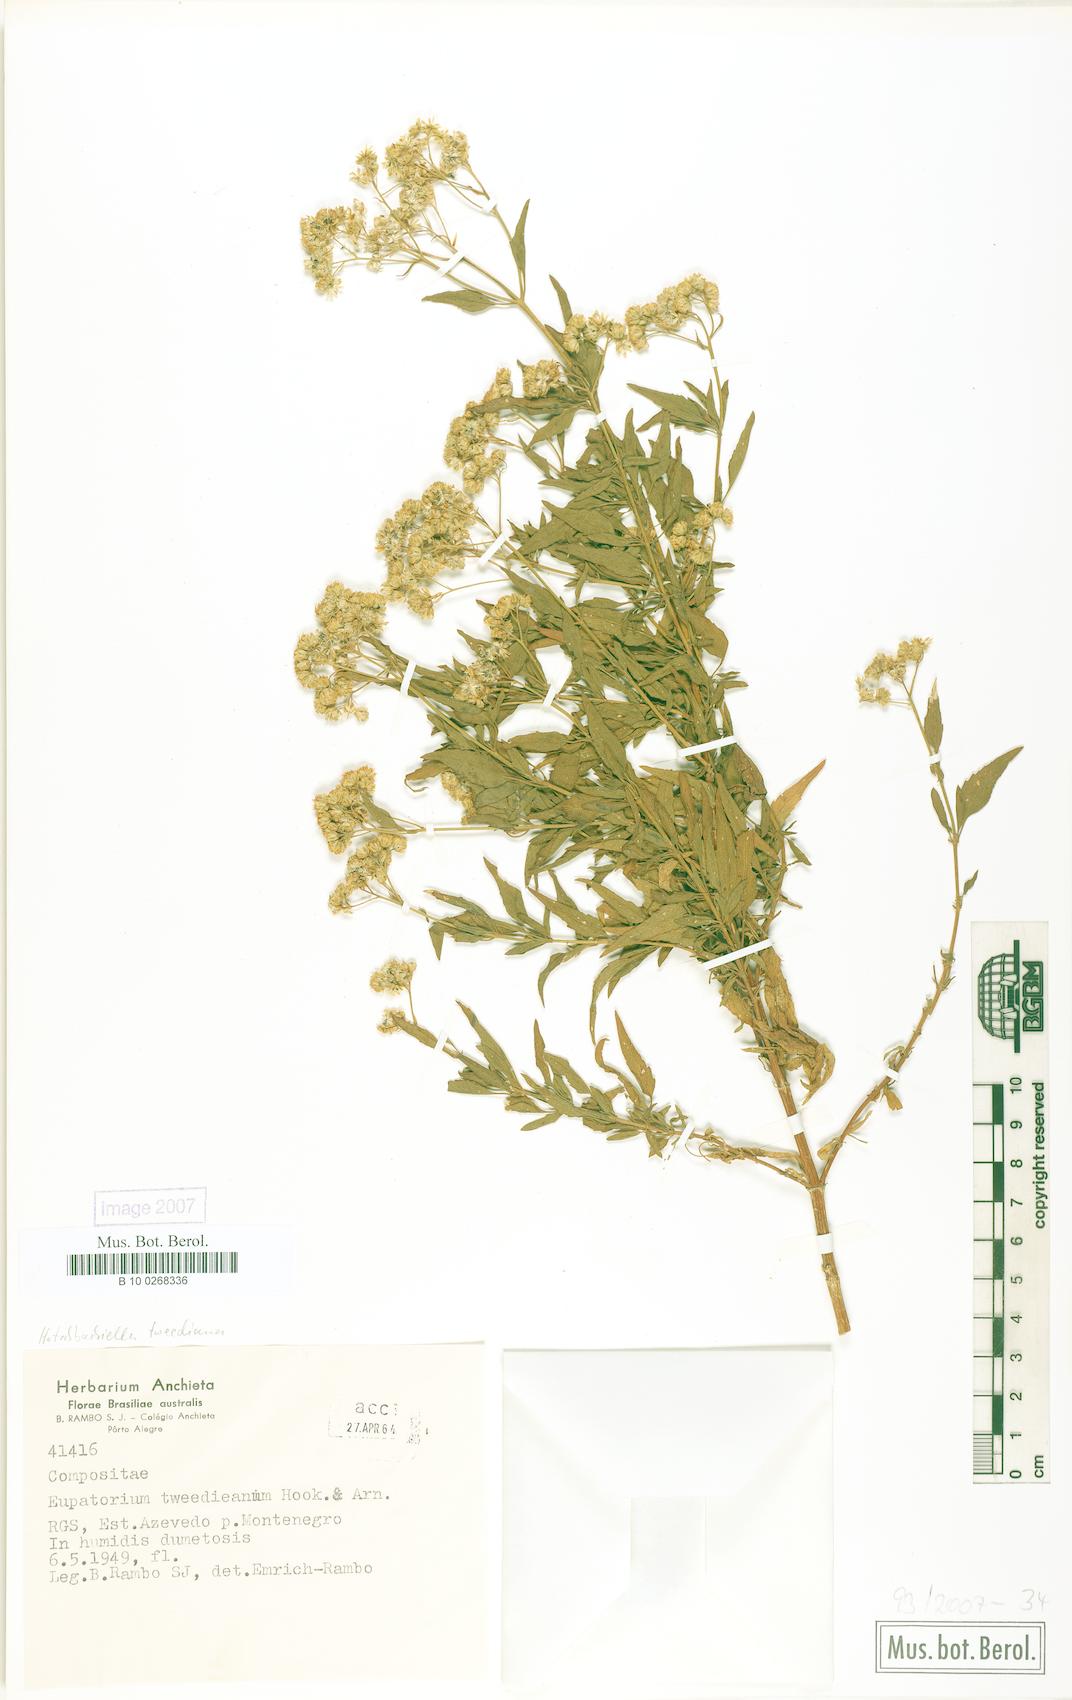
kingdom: Plantae
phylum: Tracheophyta
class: Magnoliopsida
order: Asterales
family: Asteraceae
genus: Hatschbachiella
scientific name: Hatschbachiella tweedieana
